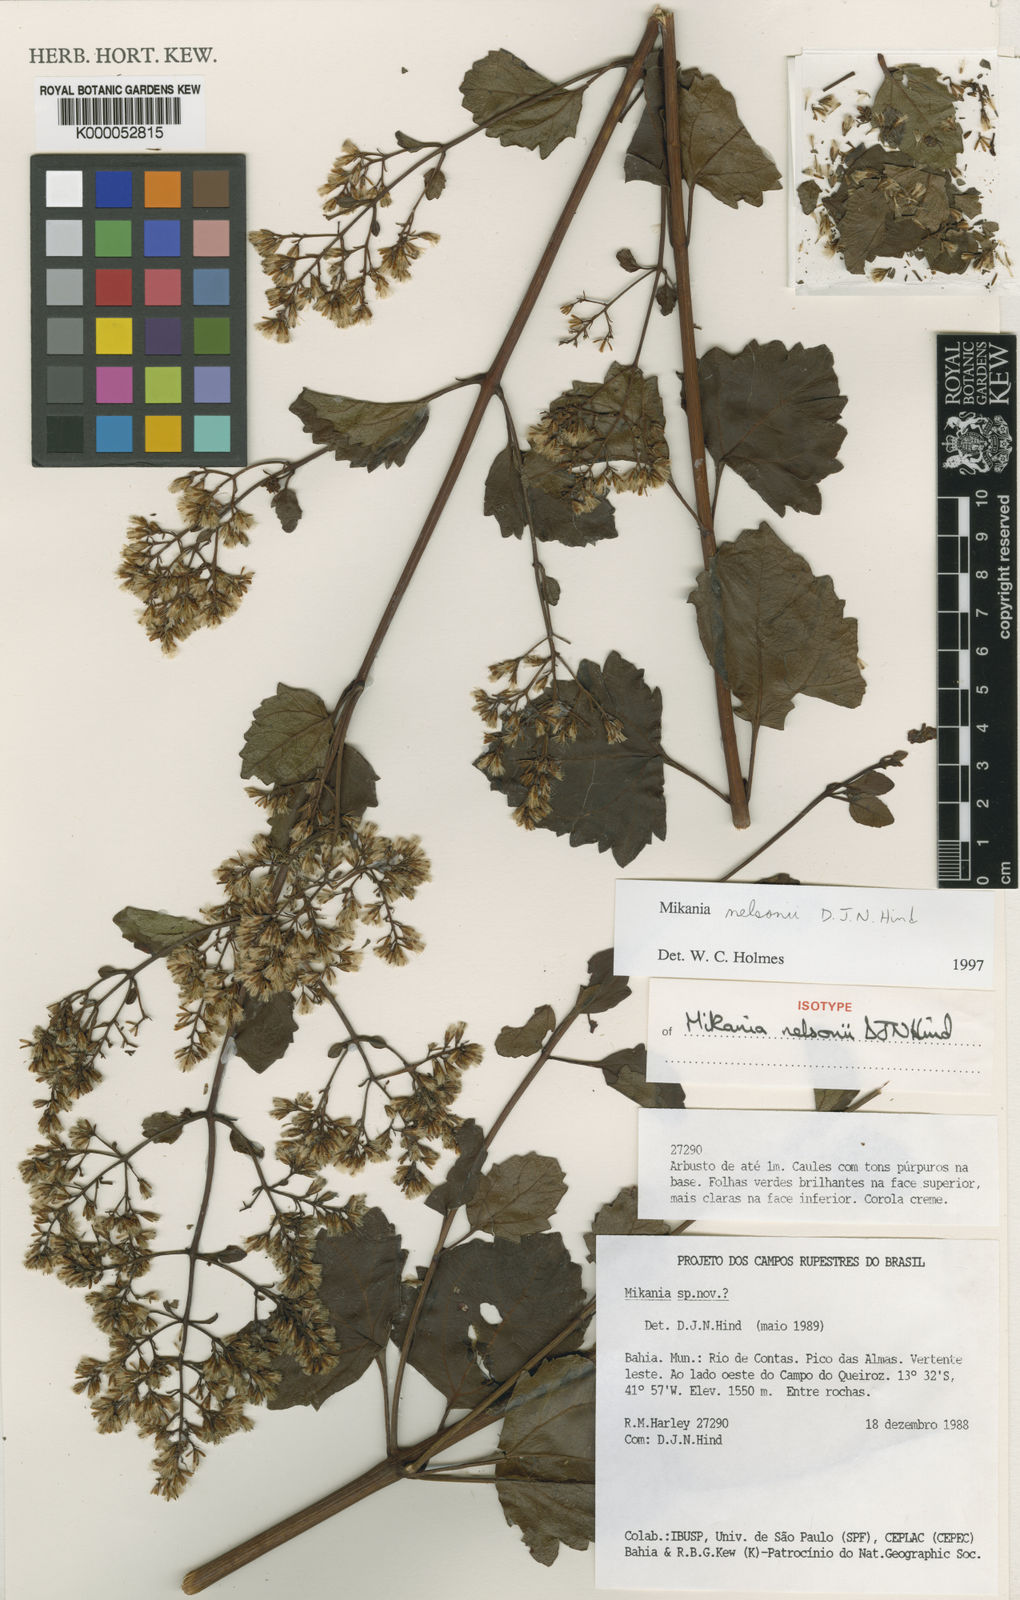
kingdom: Plantae
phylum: Tracheophyta
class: Magnoliopsida
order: Asterales
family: Asteraceae
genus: Mikania
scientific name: Mikania nelsonii
